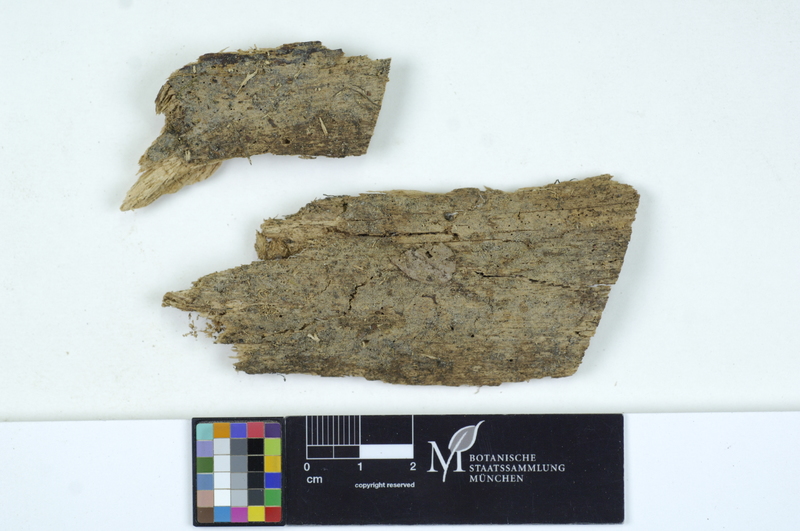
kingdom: Fungi
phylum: Basidiomycota
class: Agaricomycetes
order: Auriculariales
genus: Mycostilla
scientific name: Mycostilla vermiformis
